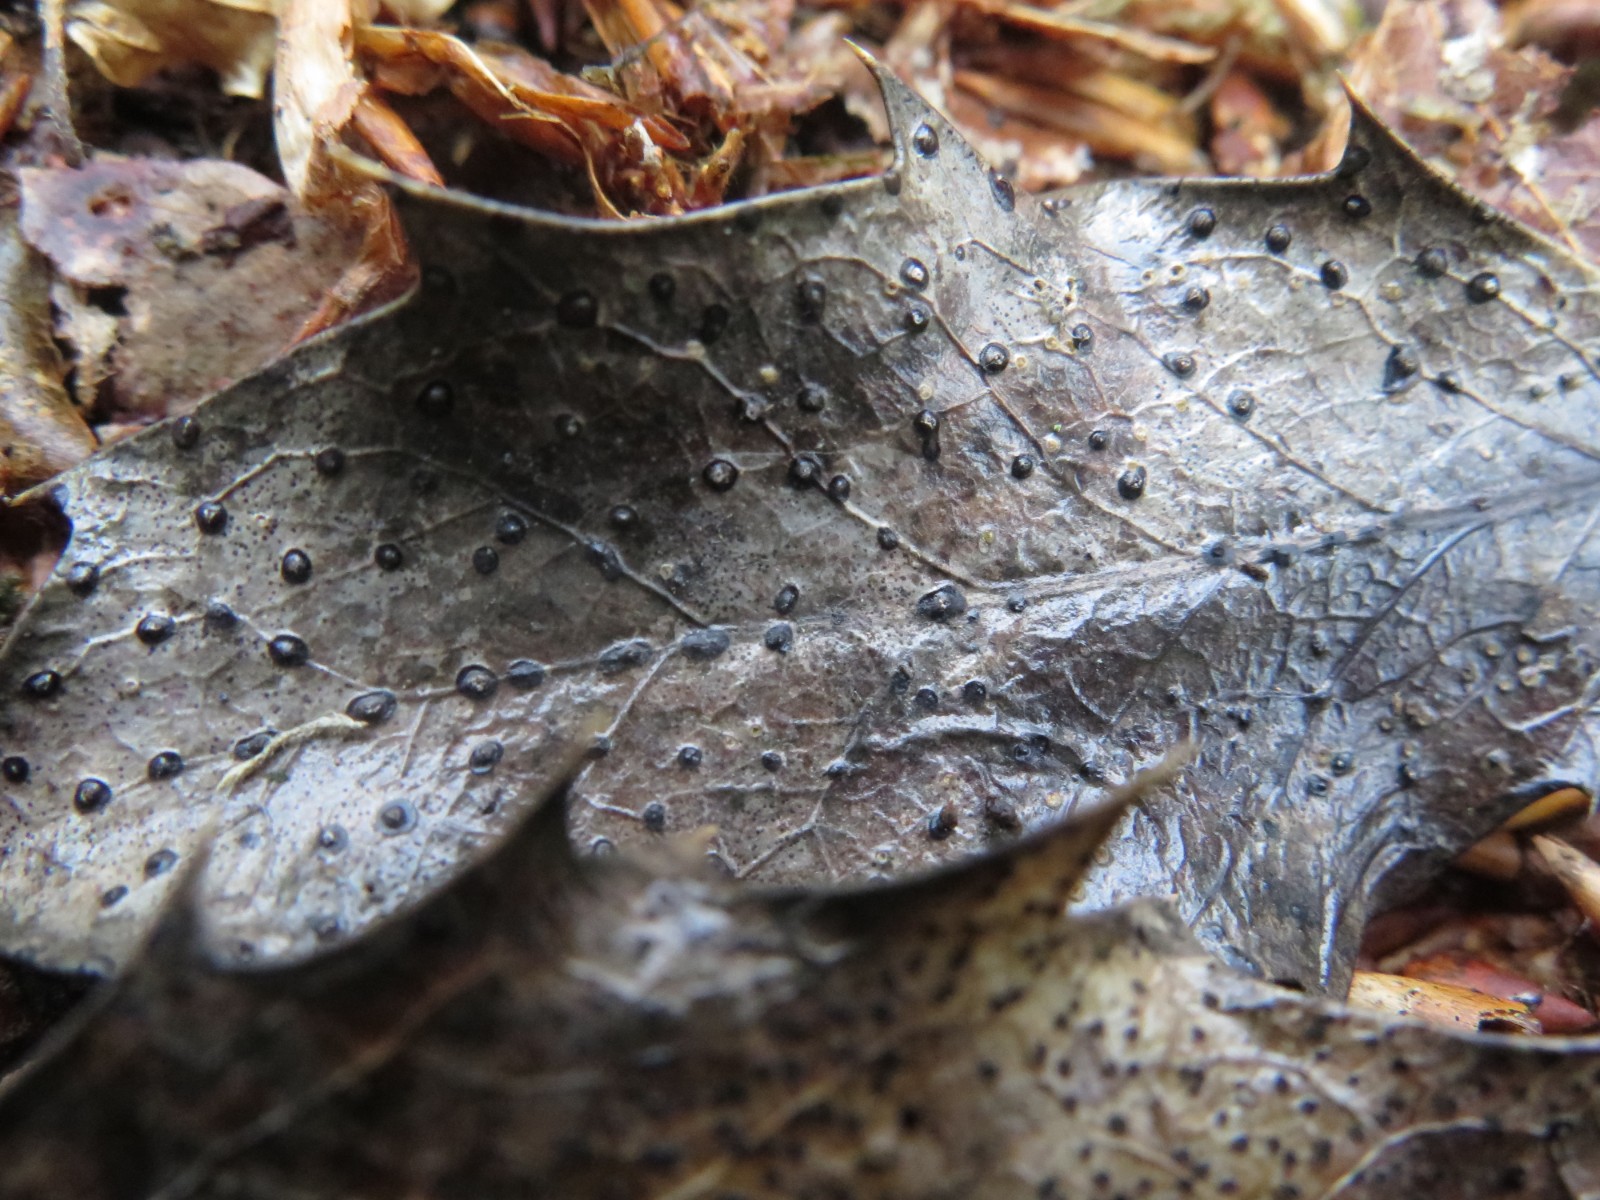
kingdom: Fungi
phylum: Ascomycota
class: Leotiomycetes
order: Phacidiales
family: Phacidiaceae
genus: Phacidium
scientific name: Phacidium lauri
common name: kristtorn-tandskive
